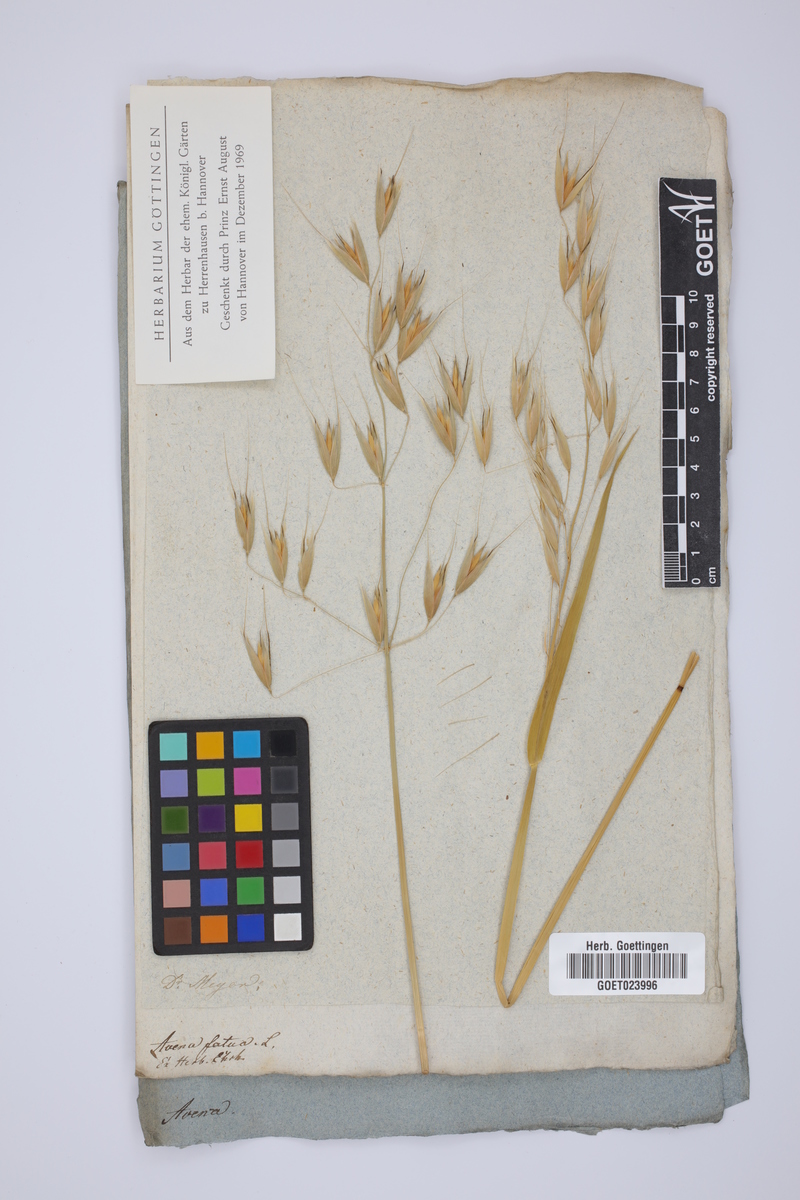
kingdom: Plantae
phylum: Tracheophyta
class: Liliopsida
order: Poales
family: Poaceae
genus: Avena
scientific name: Avena fatua
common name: Wild oat
